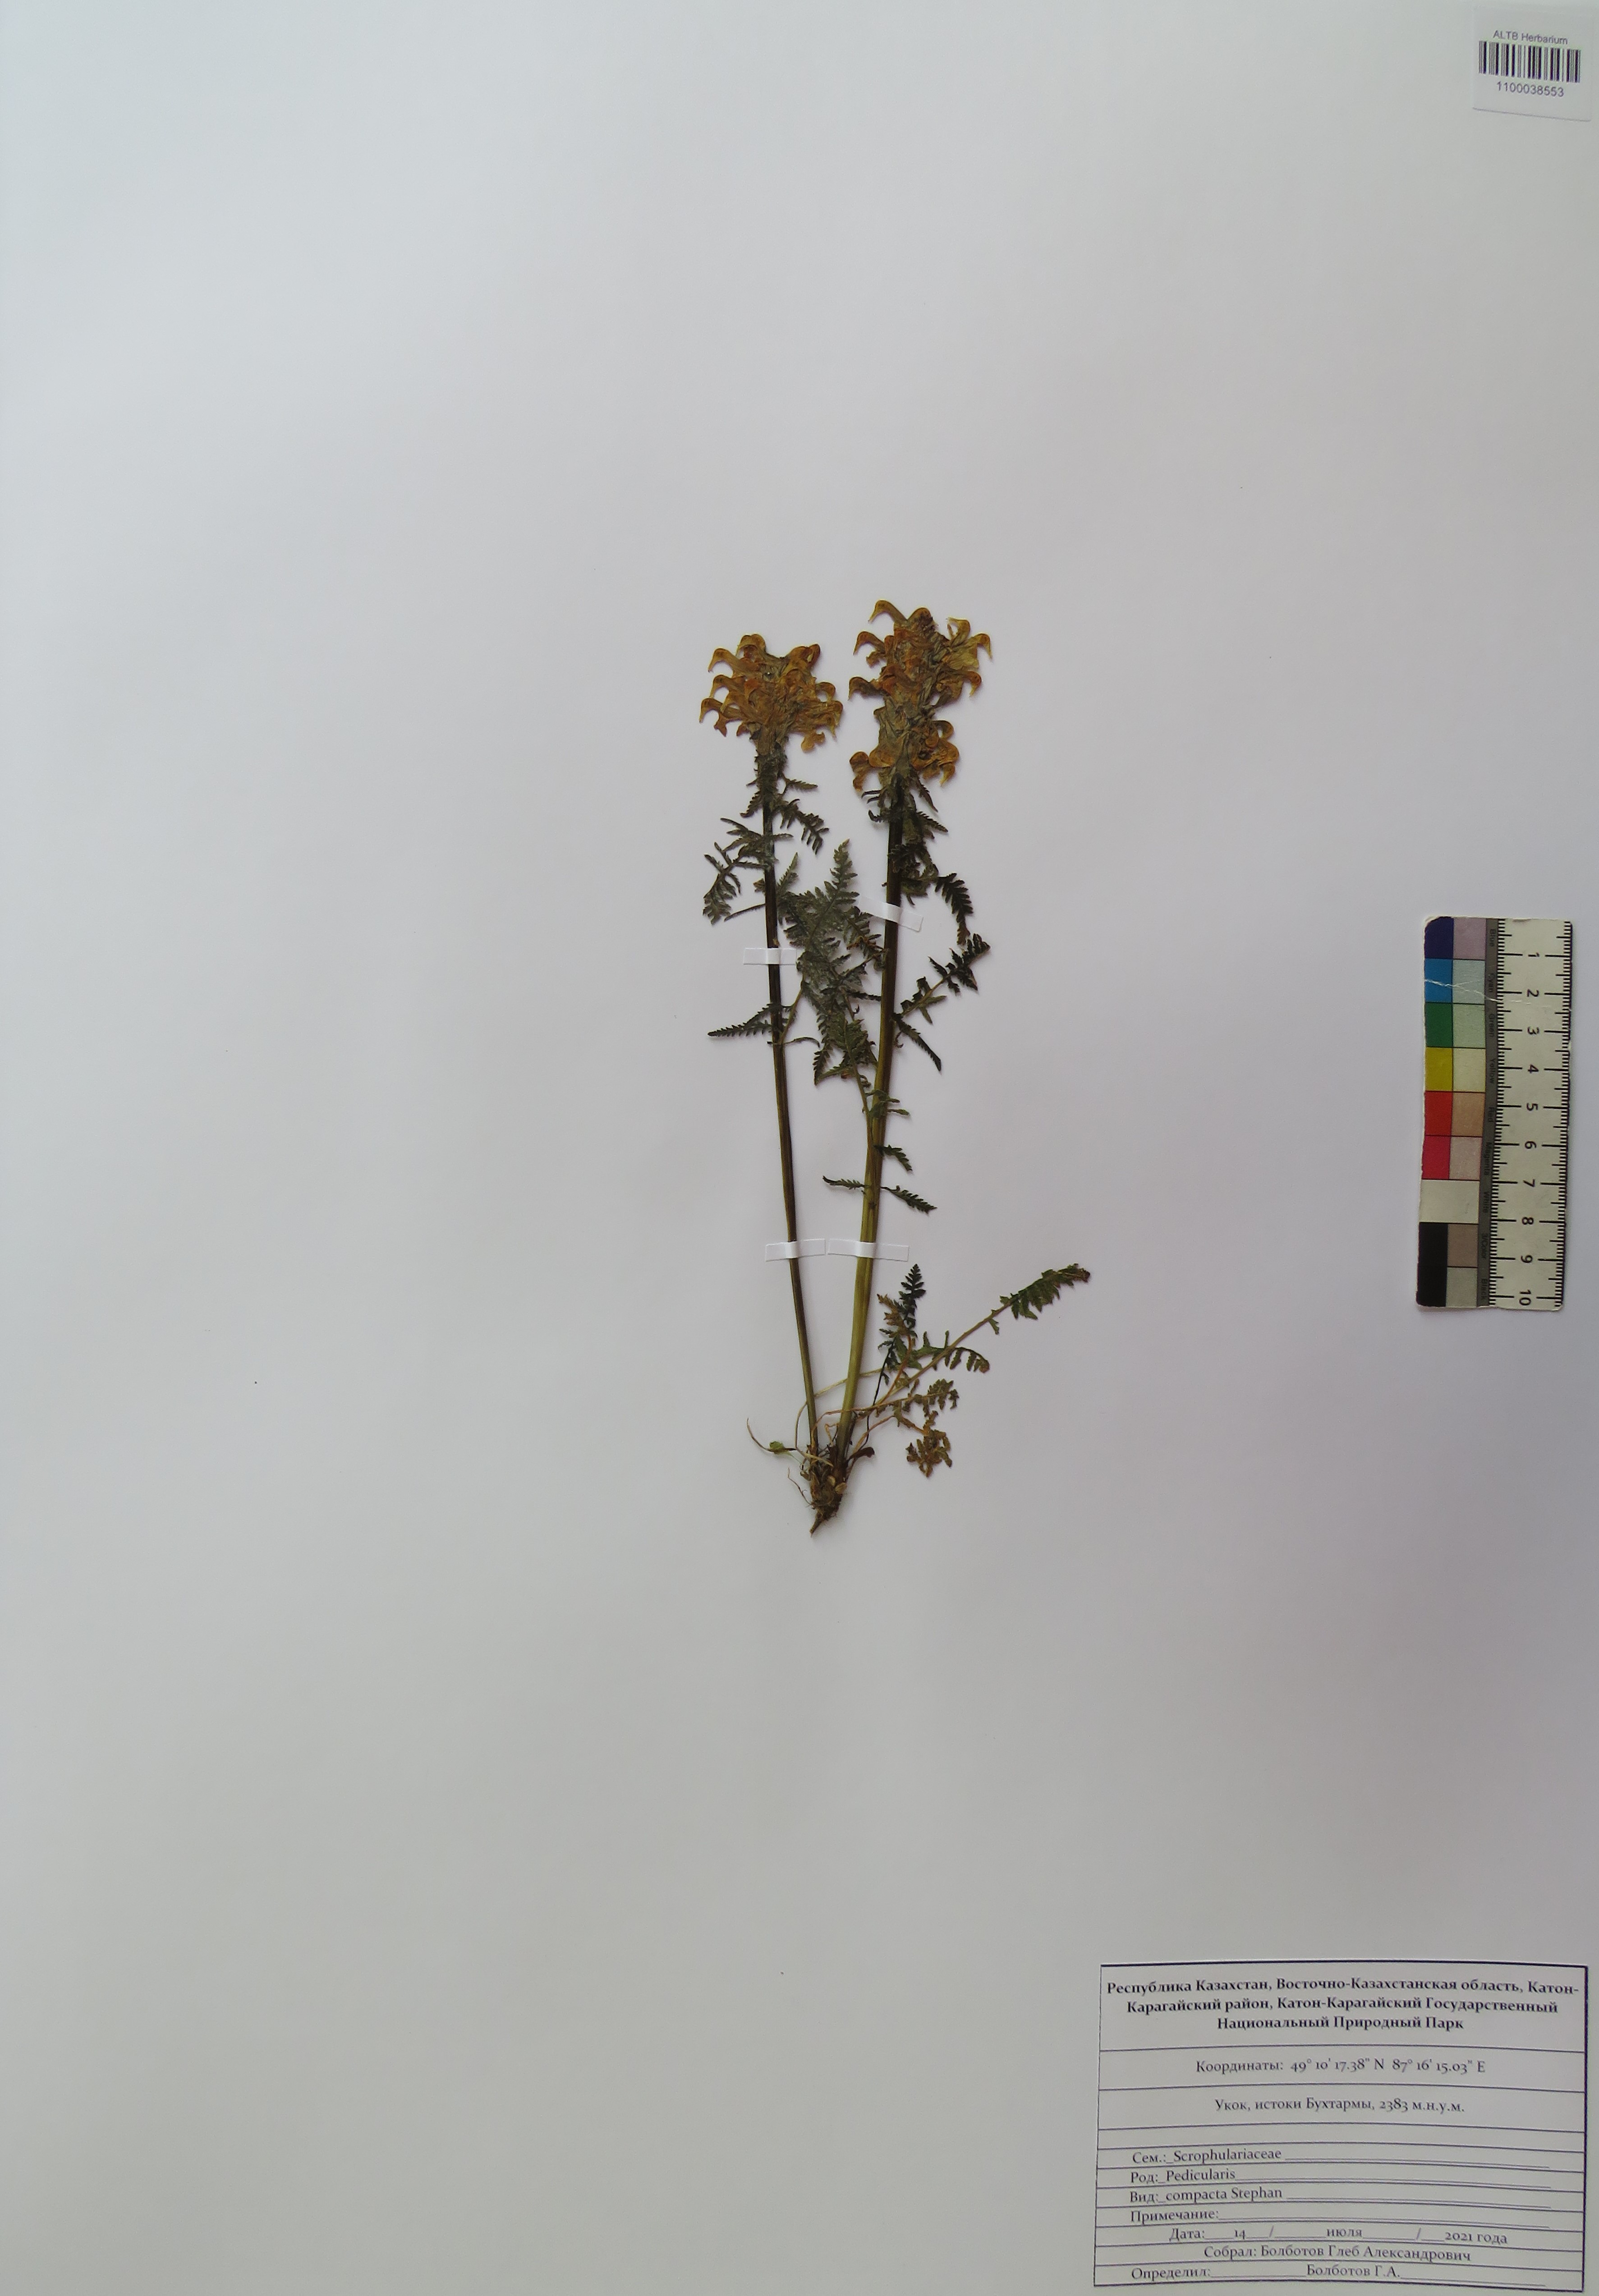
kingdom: Plantae
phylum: Tracheophyta
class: Magnoliopsida
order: Lamiales
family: Orobanchaceae
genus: Pedicularis
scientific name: Pedicularis compacta
